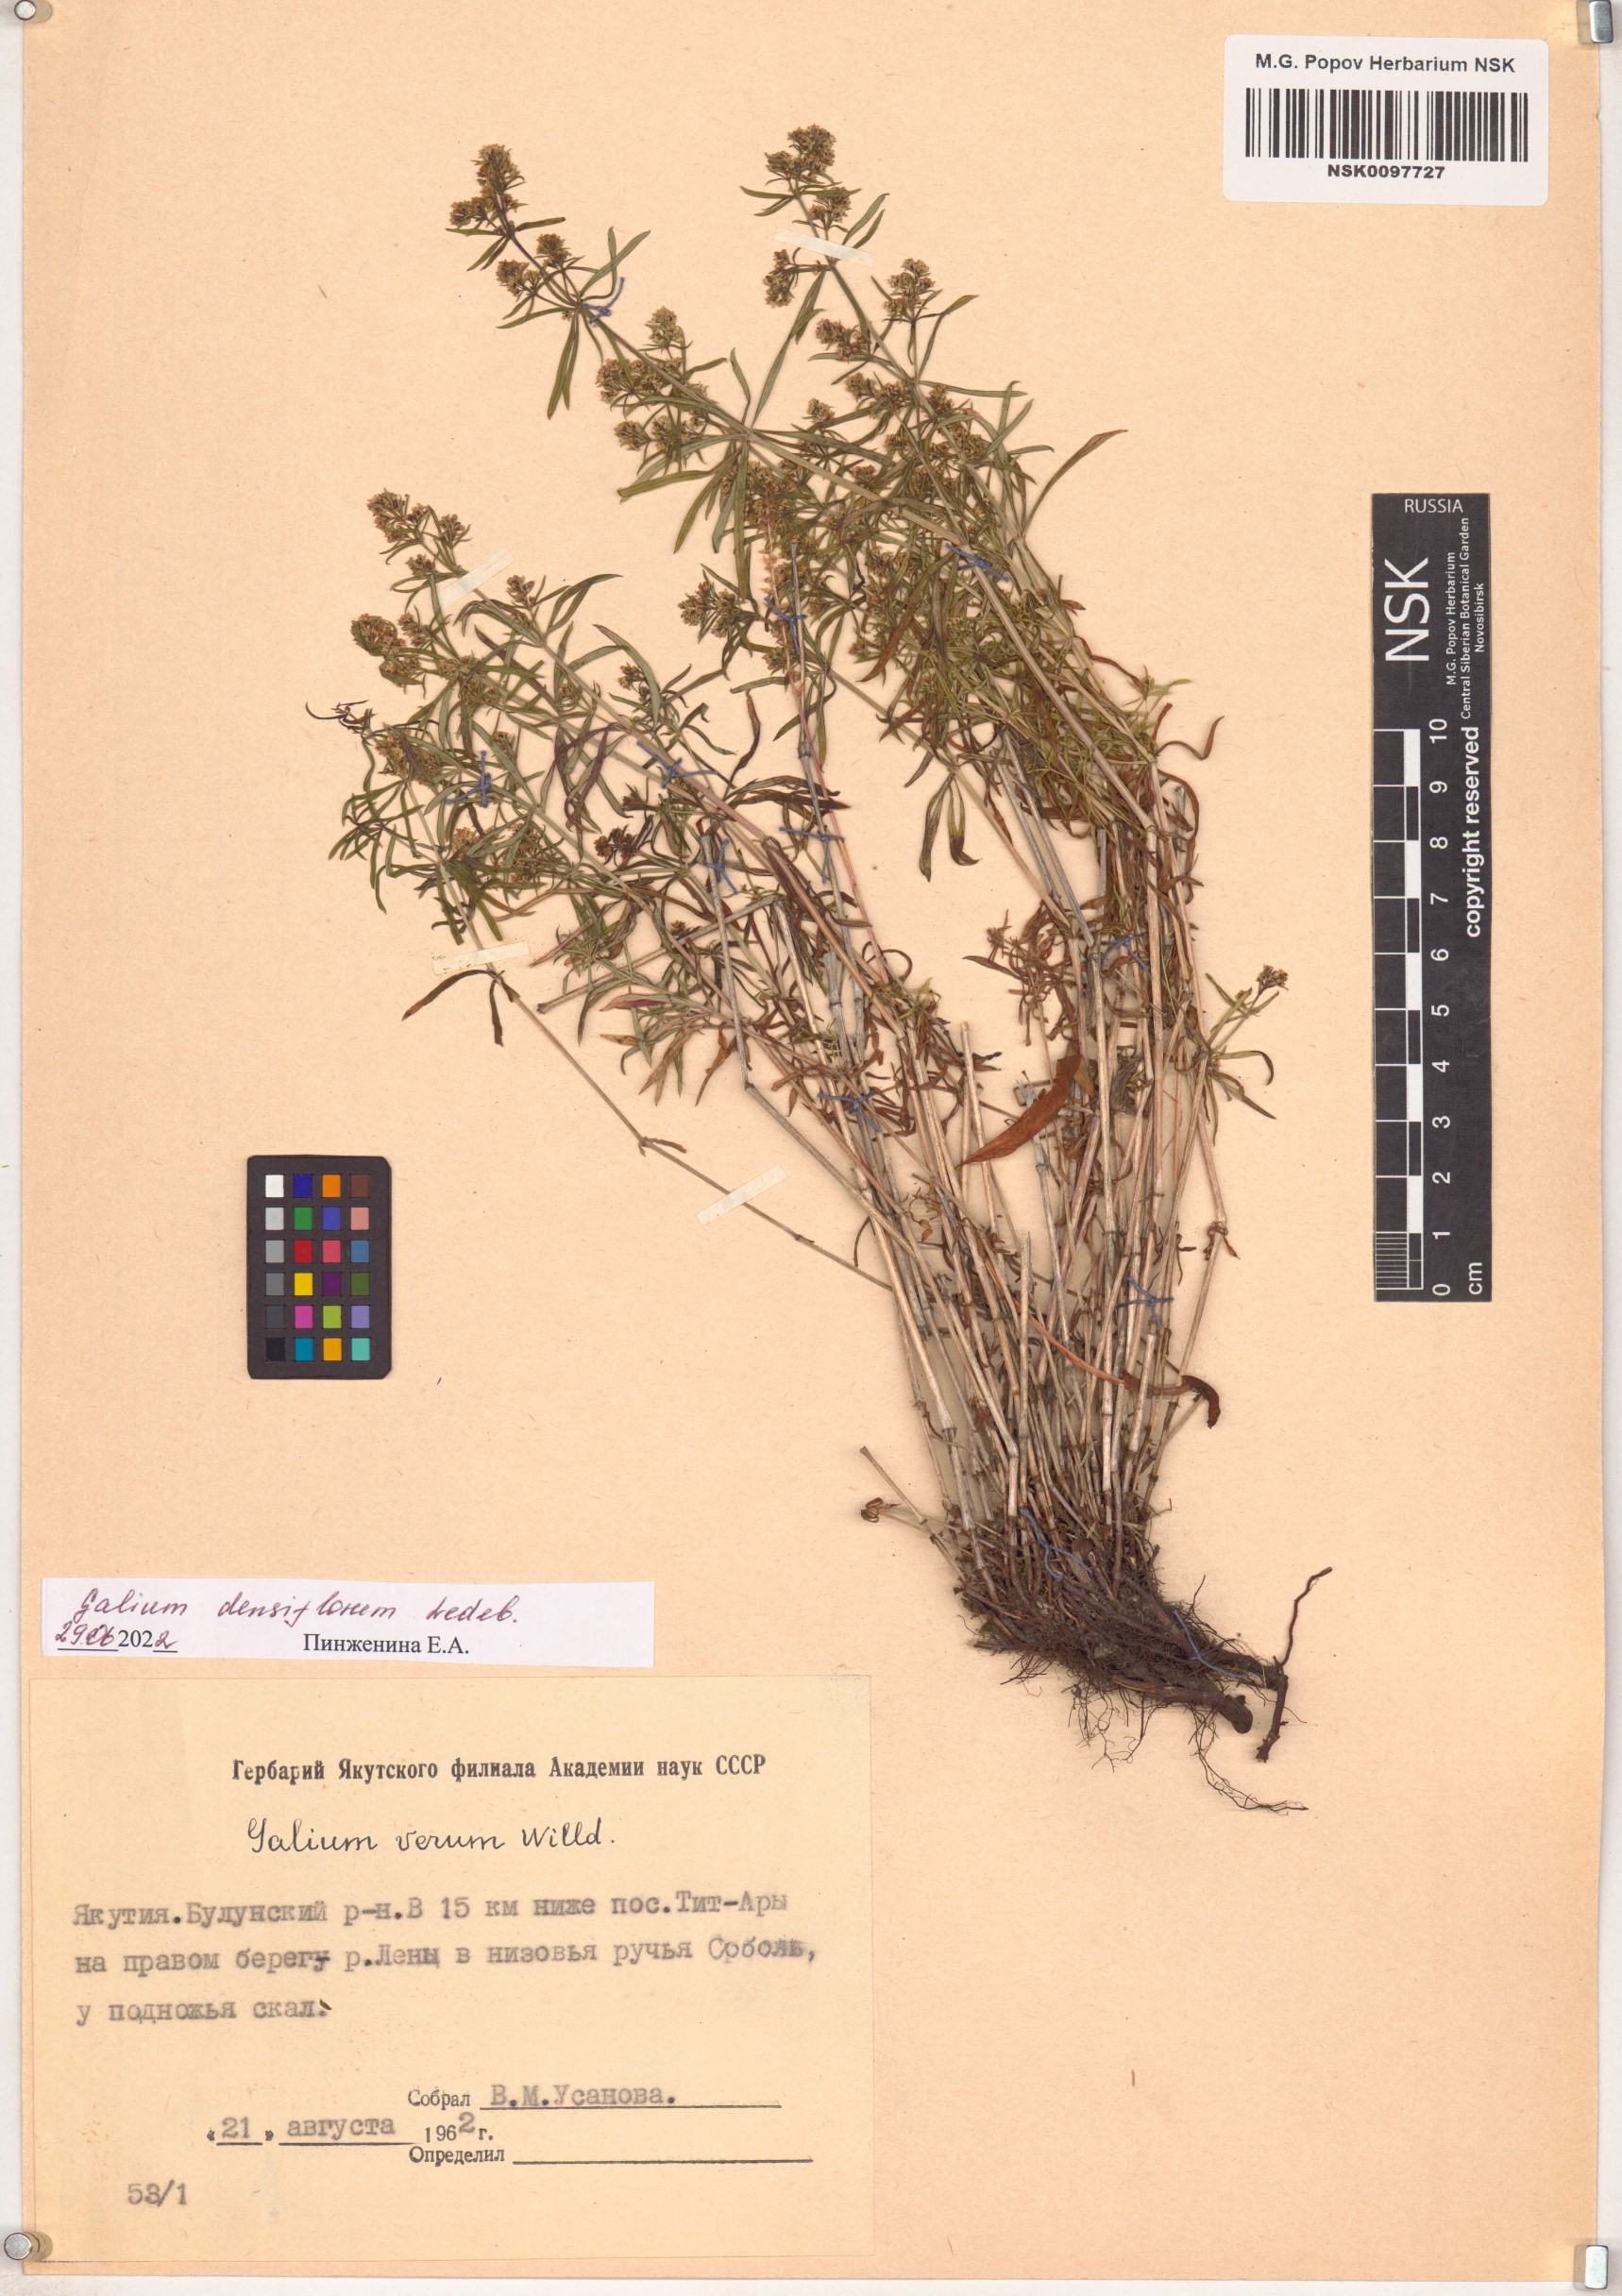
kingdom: Plantae
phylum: Tracheophyta
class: Magnoliopsida
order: Gentianales
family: Rubiaceae
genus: Galium
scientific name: Galium densiflorum
